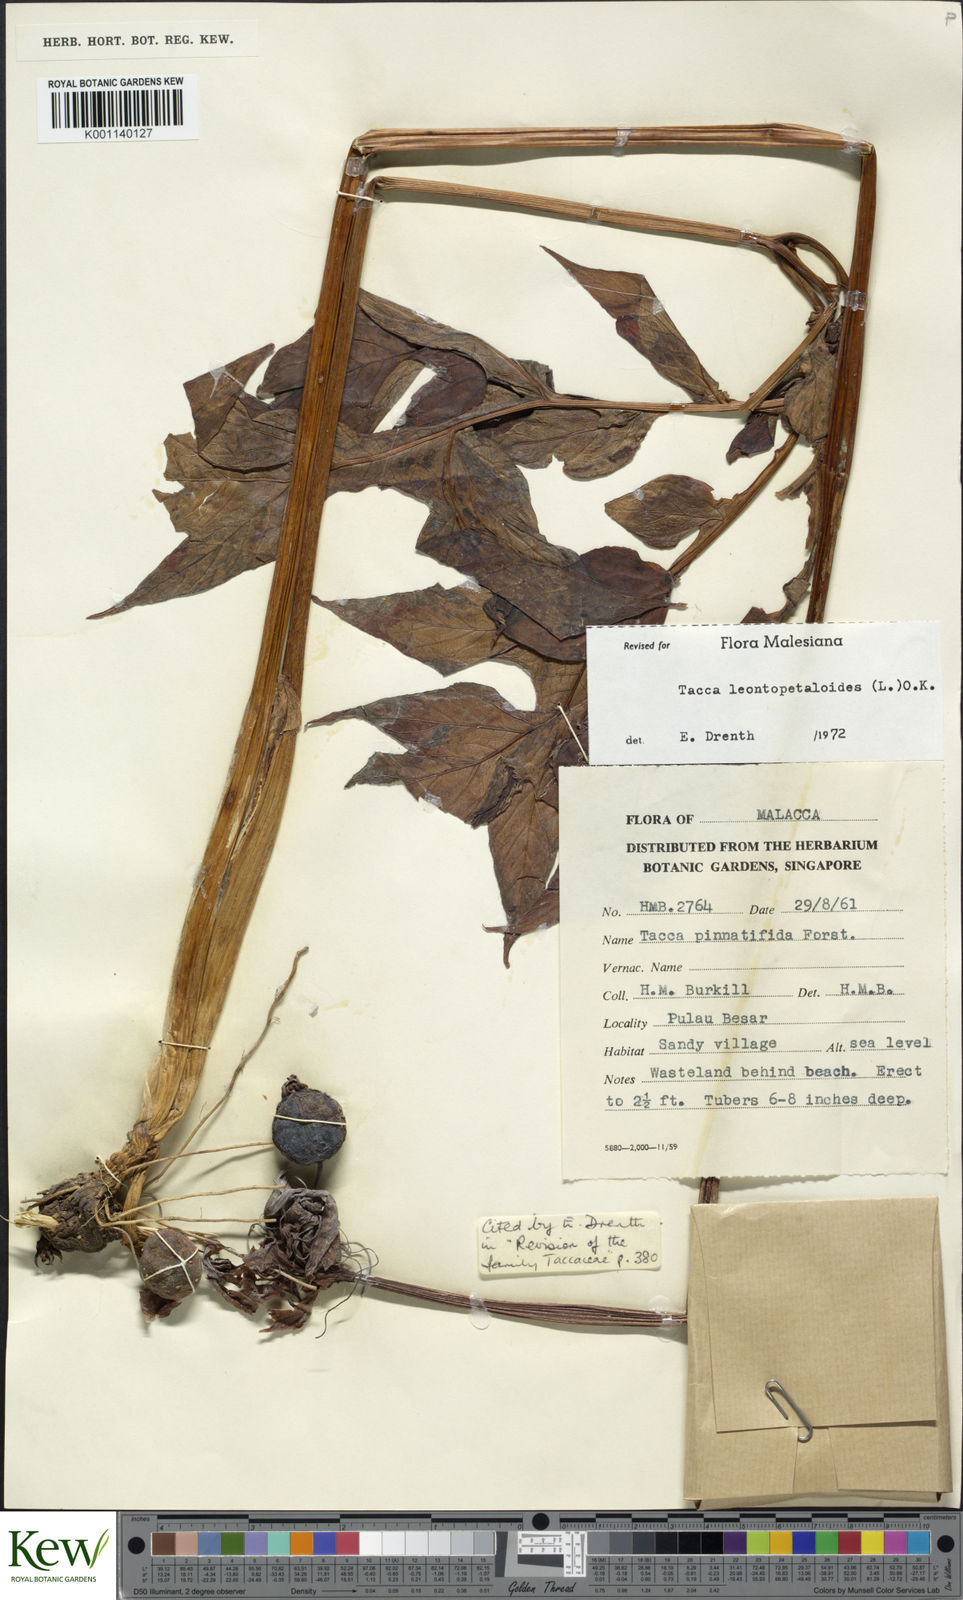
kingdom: Plantae
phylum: Tracheophyta
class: Liliopsida
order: Dioscoreales
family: Dioscoreaceae
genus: Tacca
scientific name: Tacca leontopetaloides
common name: Arrowroot
